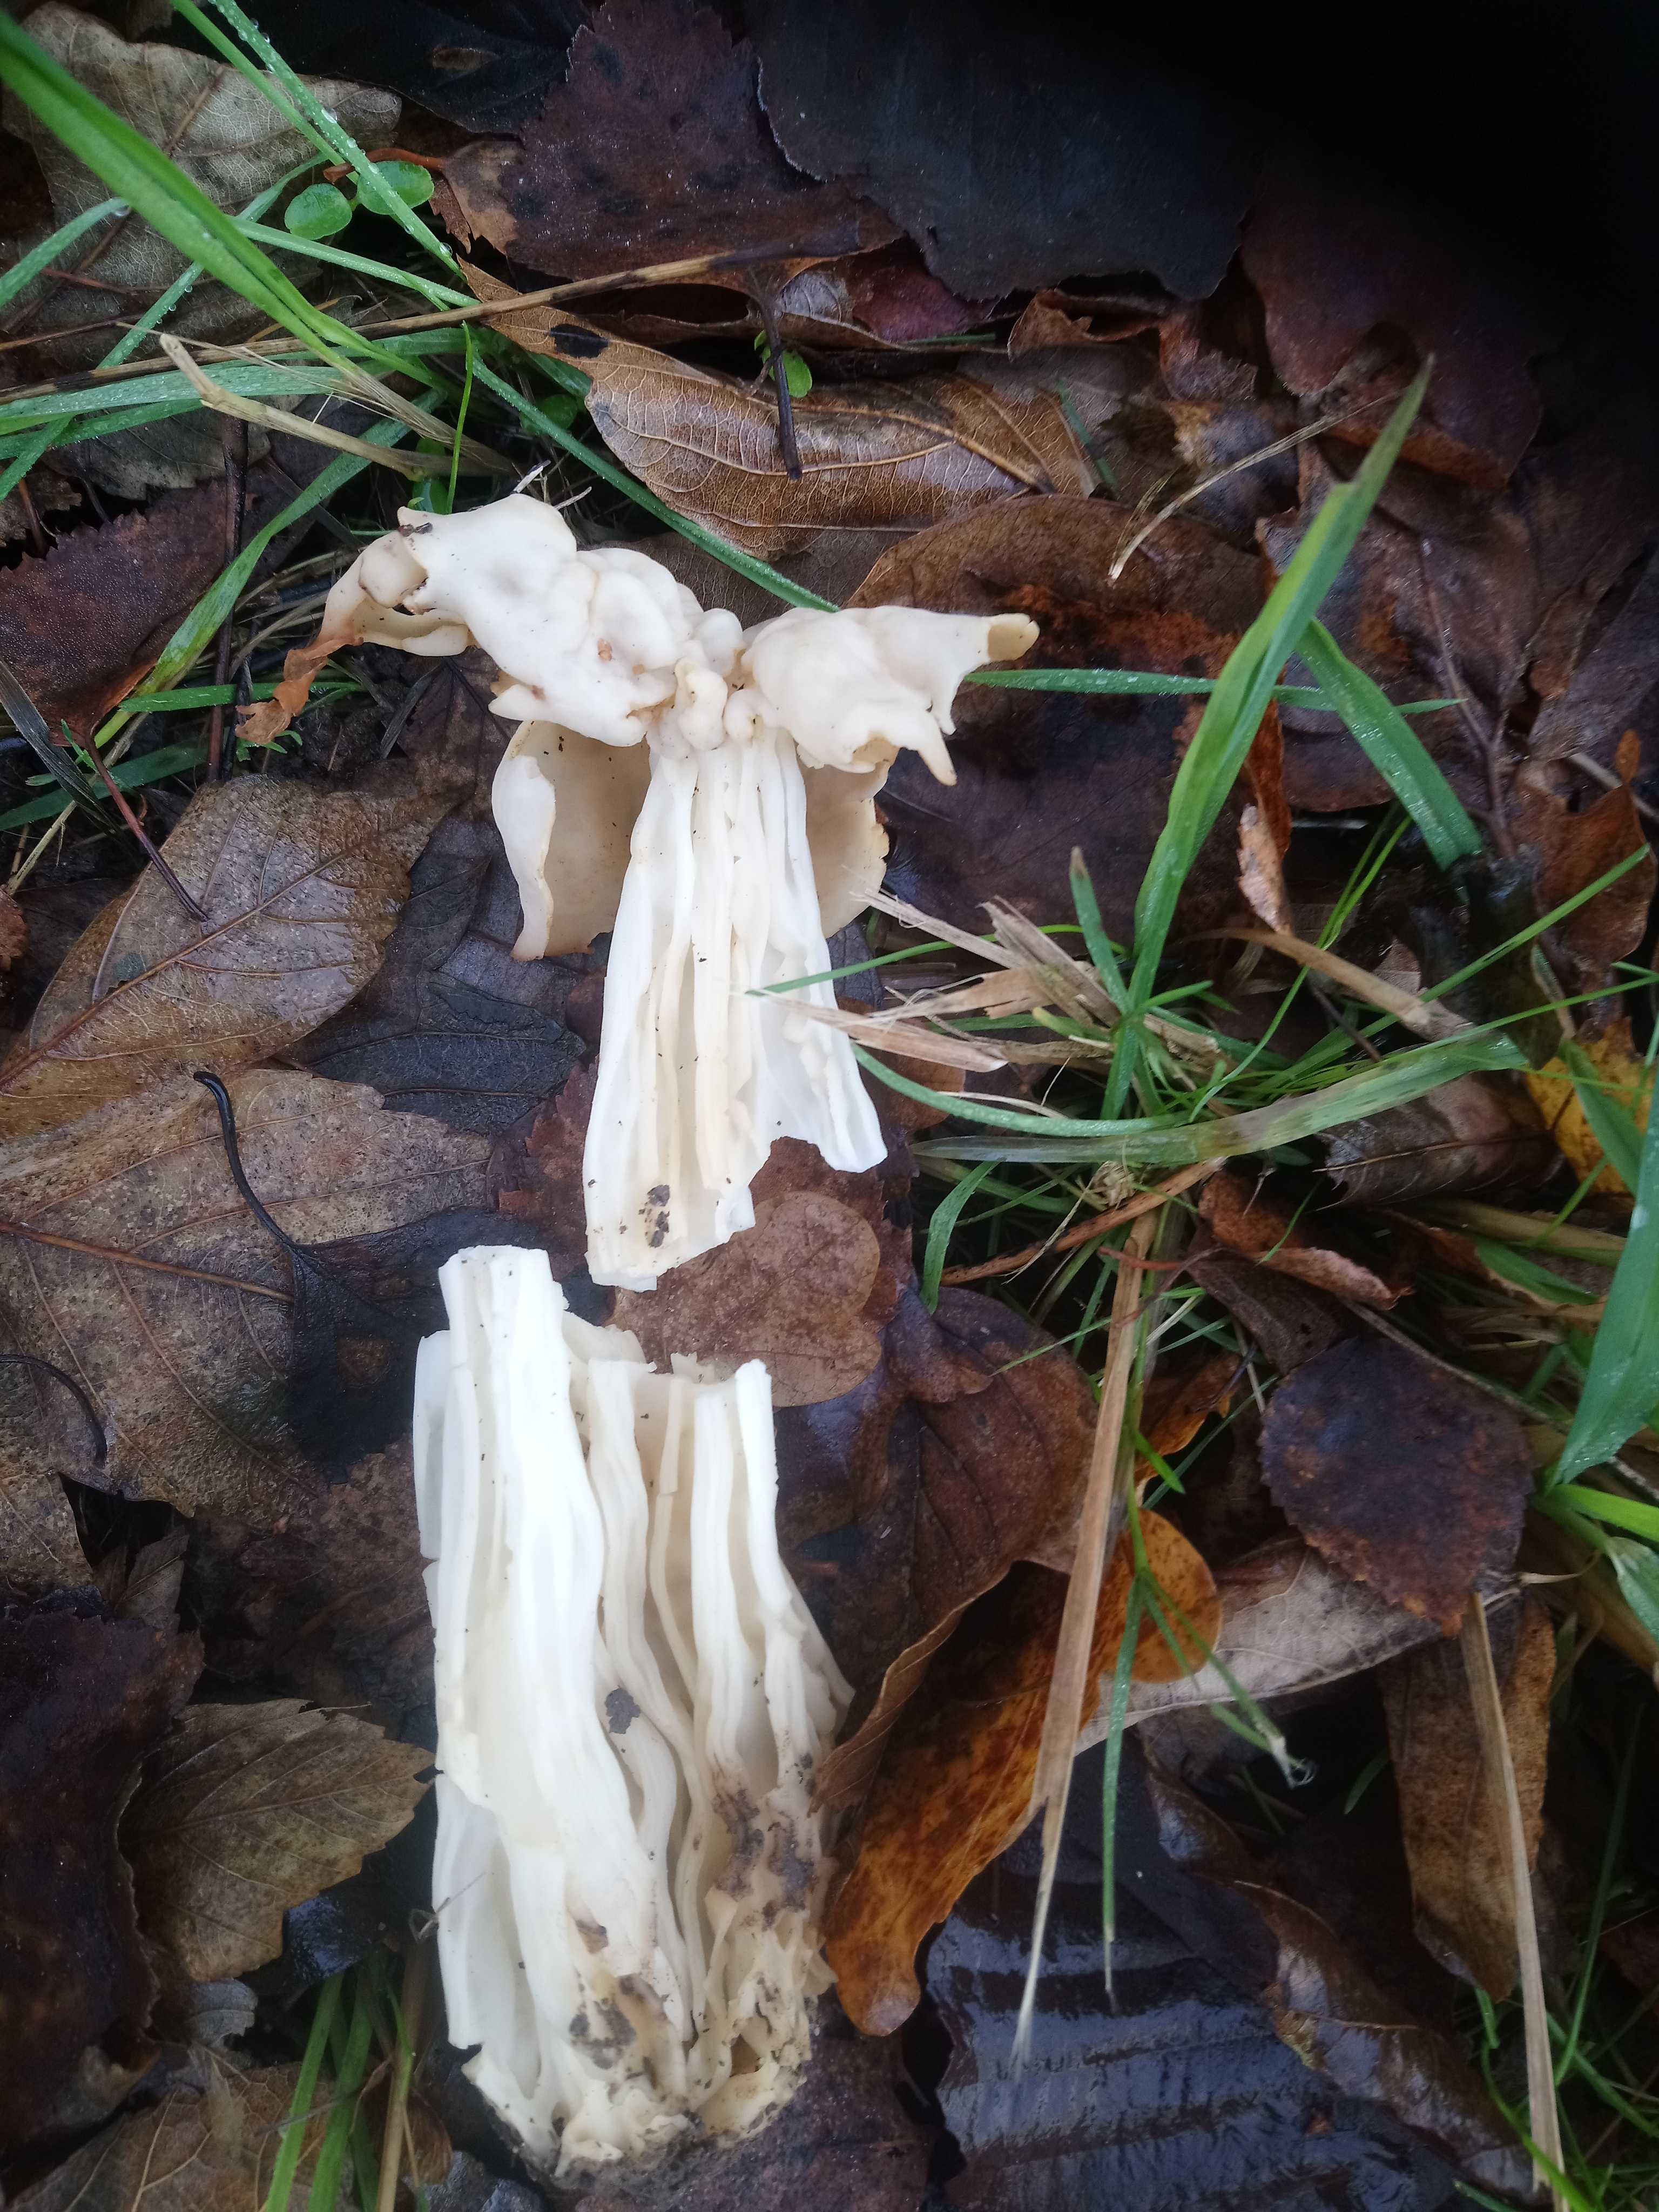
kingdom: Fungi
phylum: Ascomycota
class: Pezizomycetes
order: Pezizales
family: Helvellaceae
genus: Helvella
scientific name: Helvella crispa
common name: kruset foldhat
